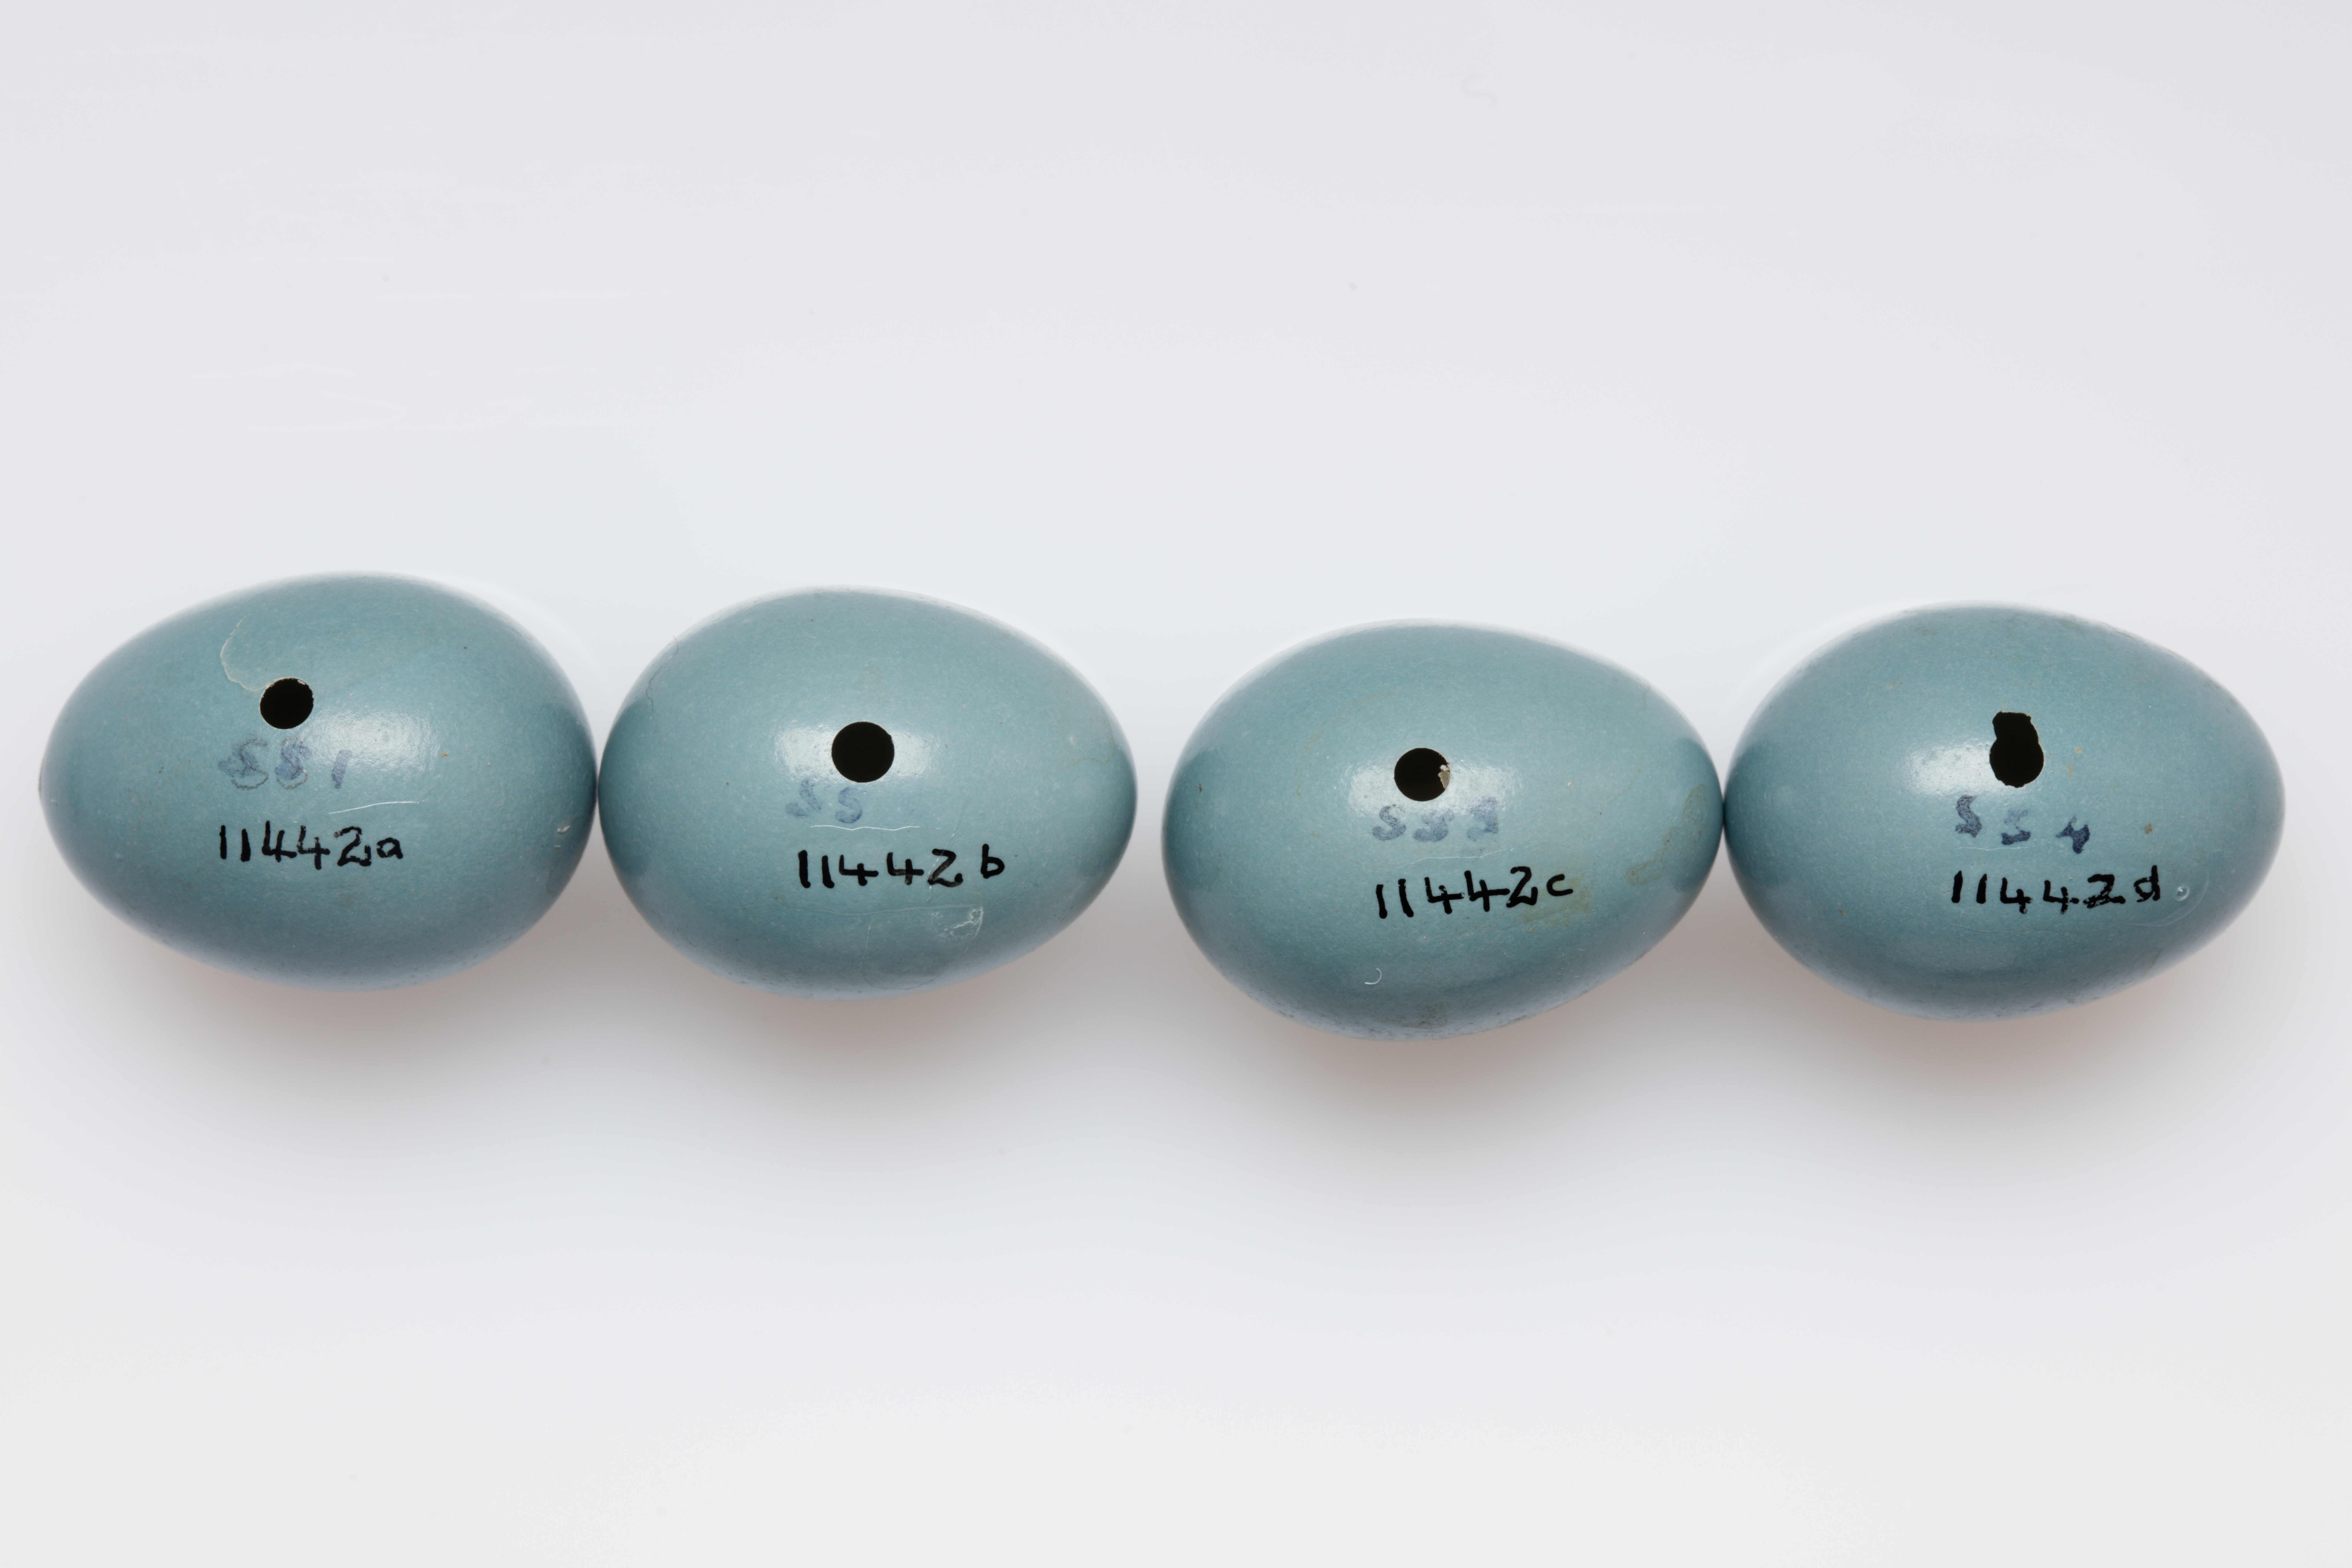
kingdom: Animalia
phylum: Chordata
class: Aves
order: Passeriformes
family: Leiothrichidae
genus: Turdoides
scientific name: Turdoides caudata
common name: Common babbler
